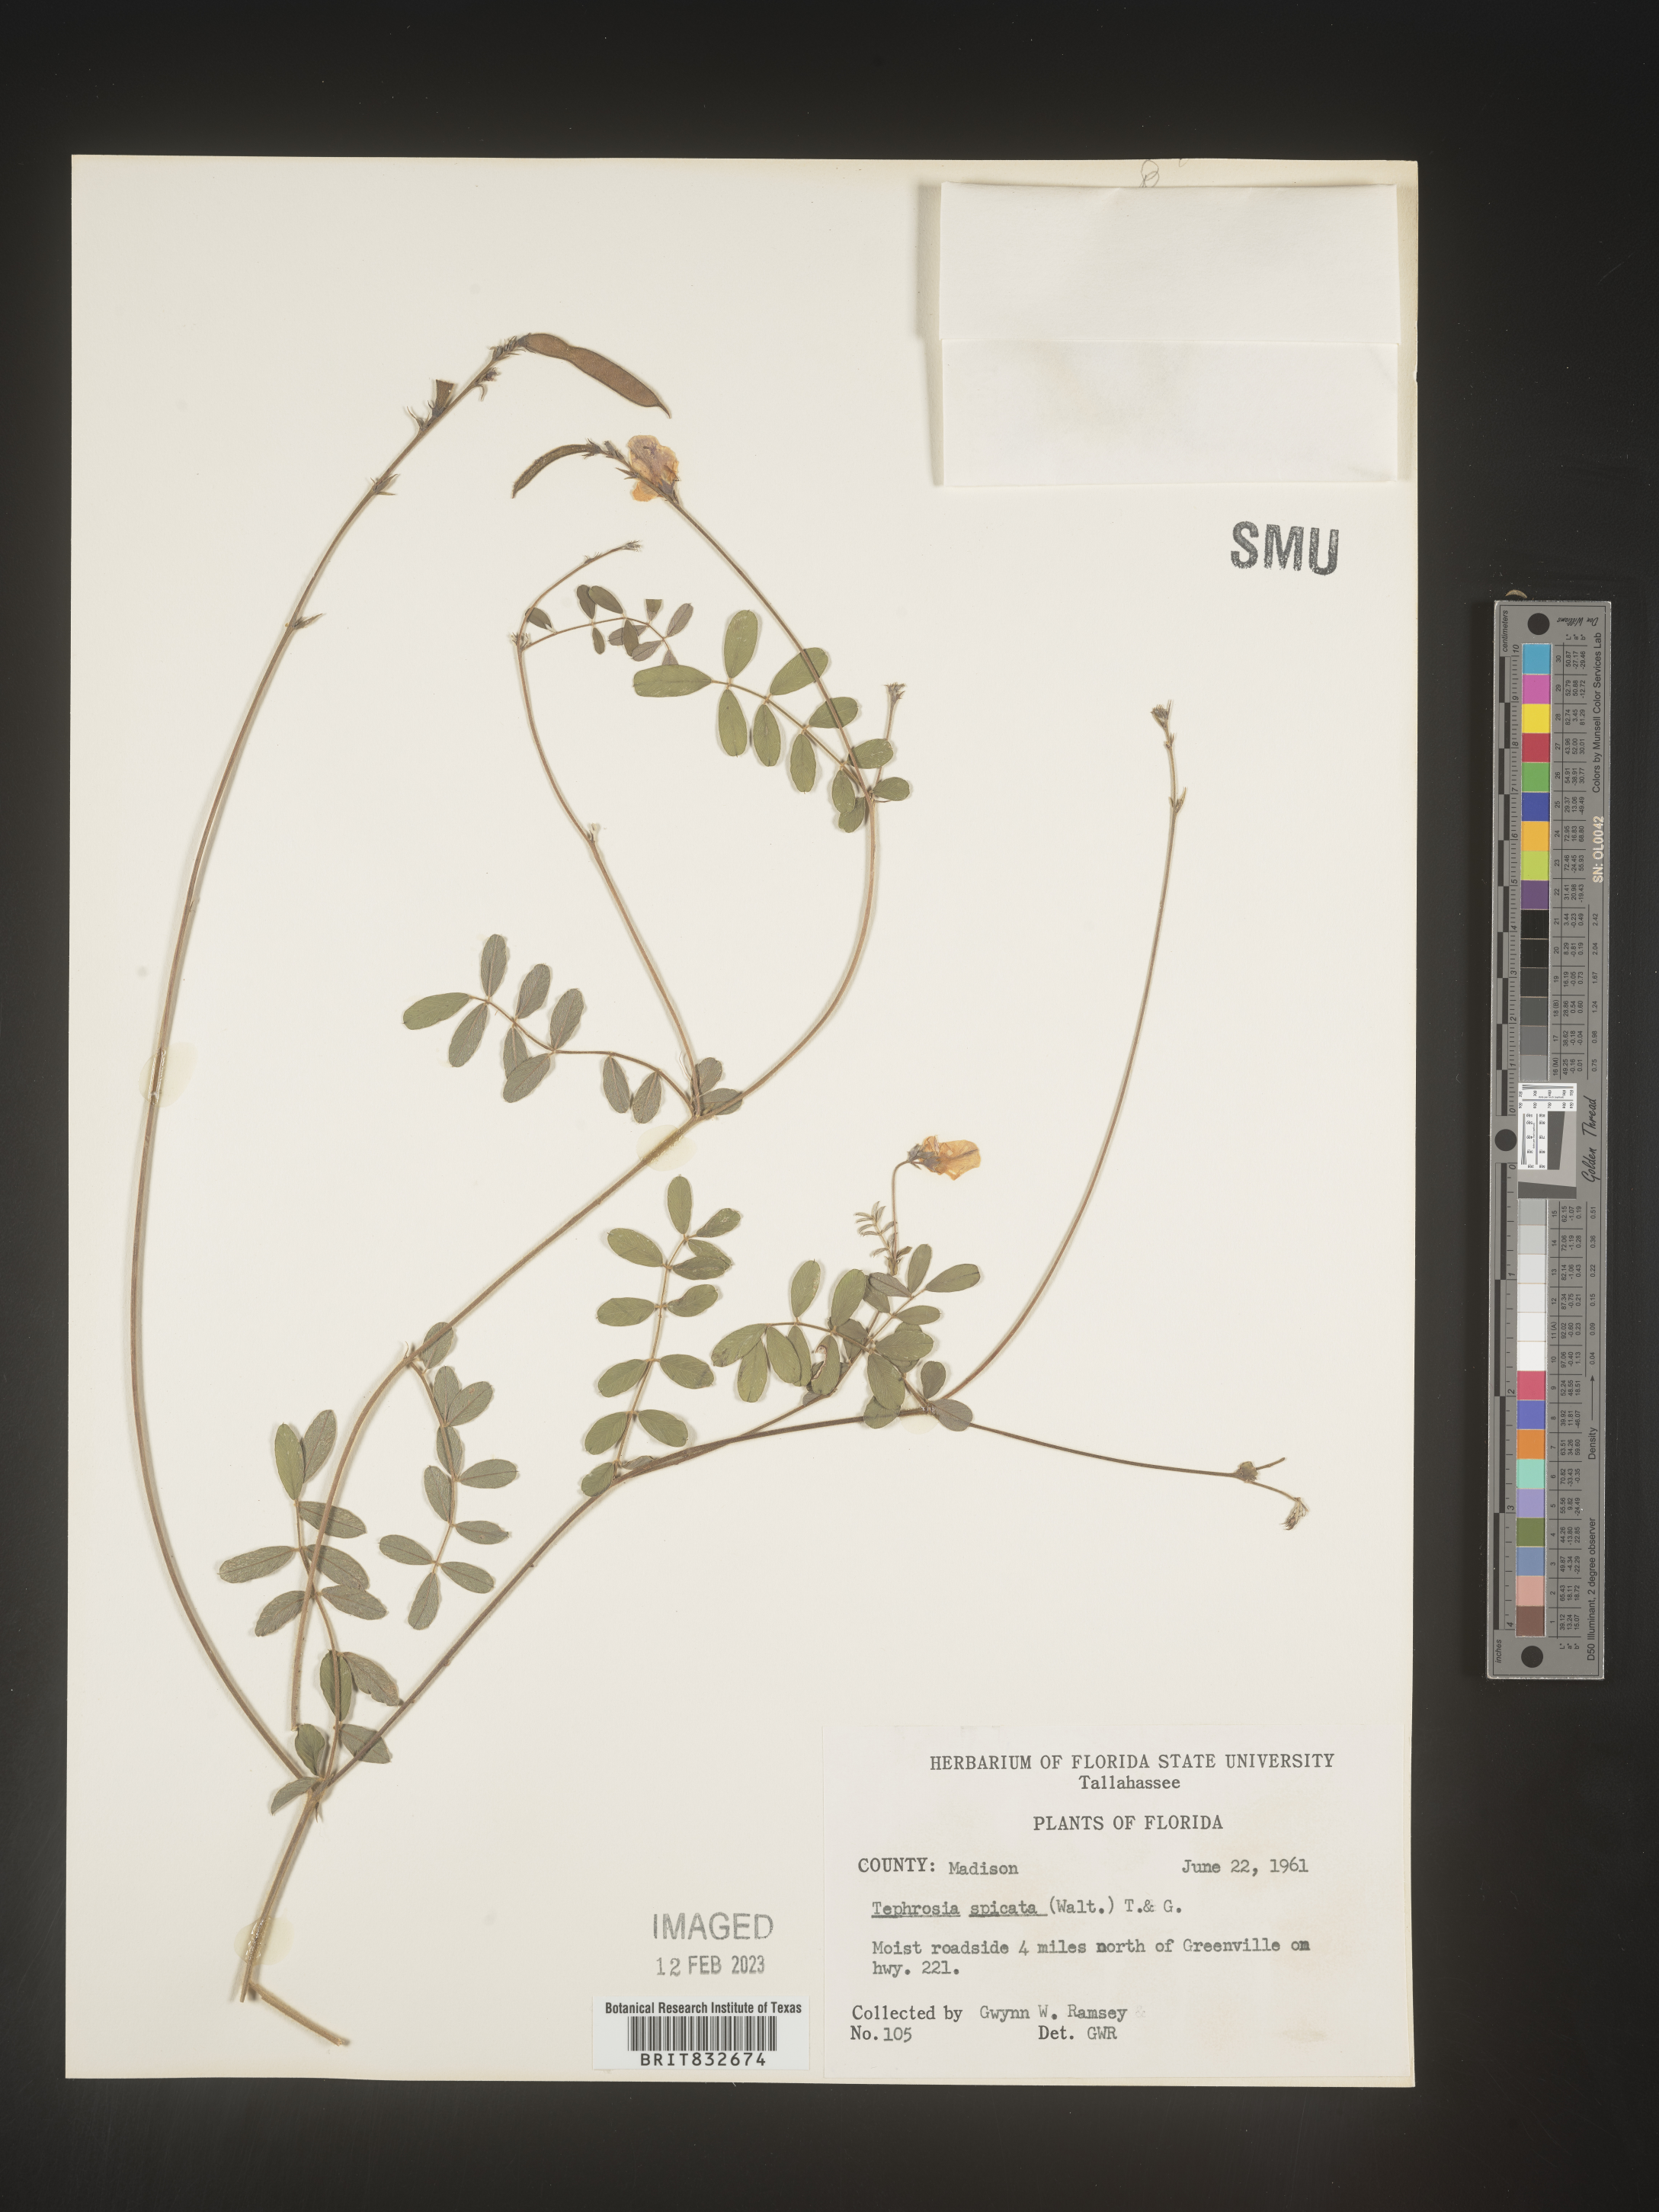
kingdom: Plantae
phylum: Tracheophyta
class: Magnoliopsida
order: Fabales
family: Fabaceae
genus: Tephrosia
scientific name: Tephrosia spicata
